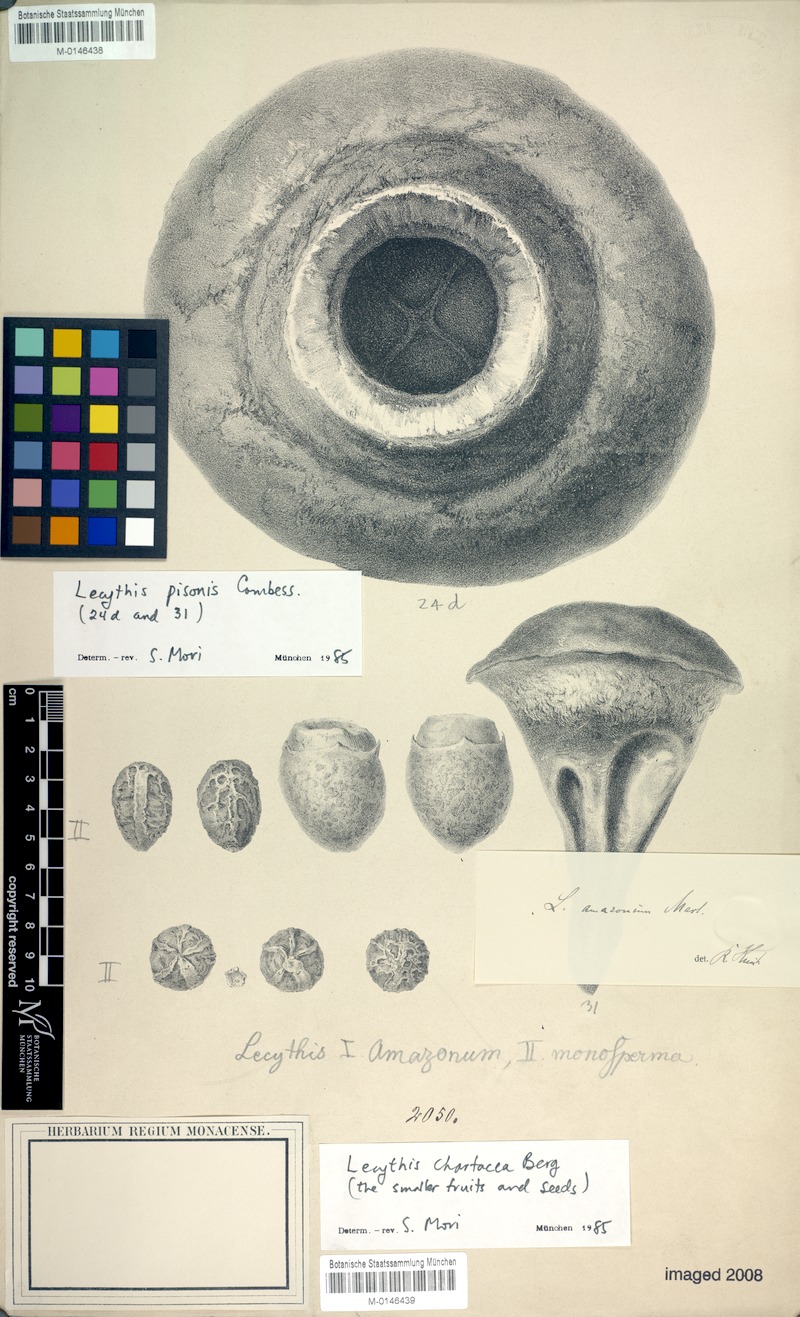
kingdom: Plantae
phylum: Tracheophyta
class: Magnoliopsida
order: Ericales
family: Lecythidaceae
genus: Lecythis
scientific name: Lecythis chartacea
